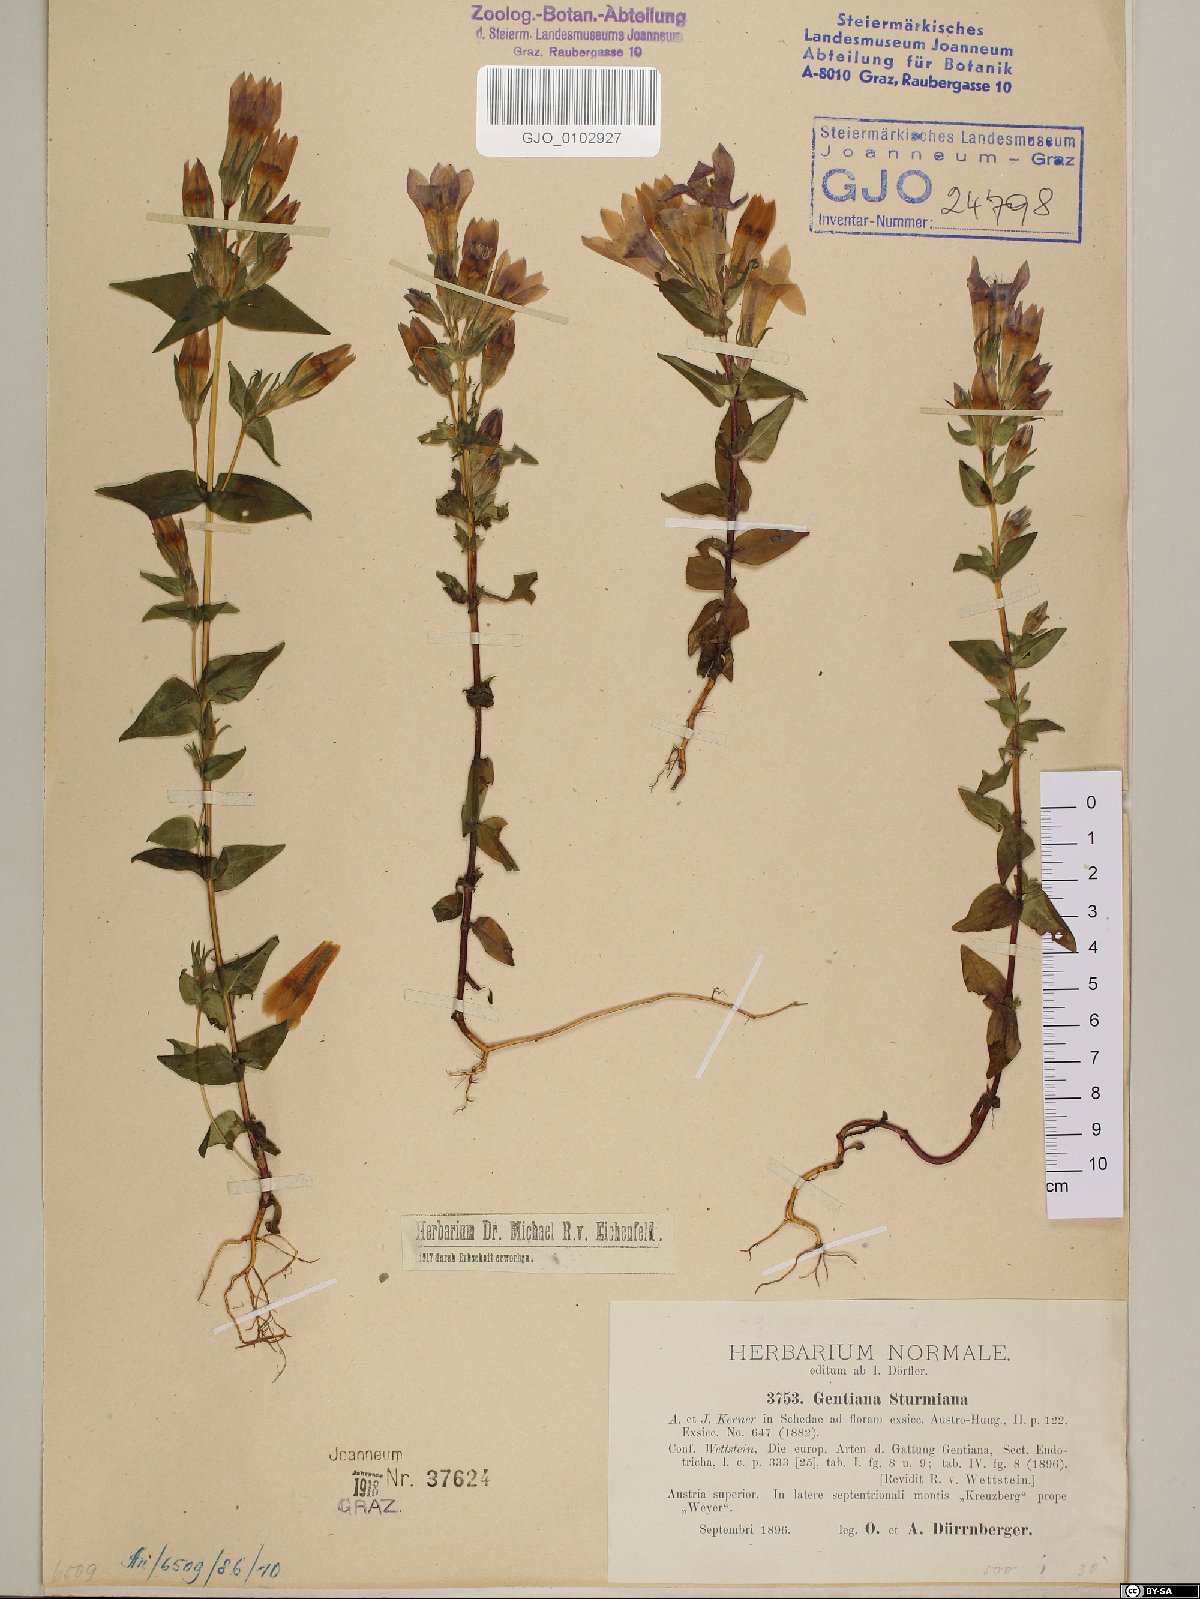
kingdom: Plantae
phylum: Tracheophyta
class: Magnoliopsida
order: Gentianales
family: Gentianaceae
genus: Gentianella
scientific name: Gentianella obtusifolia
